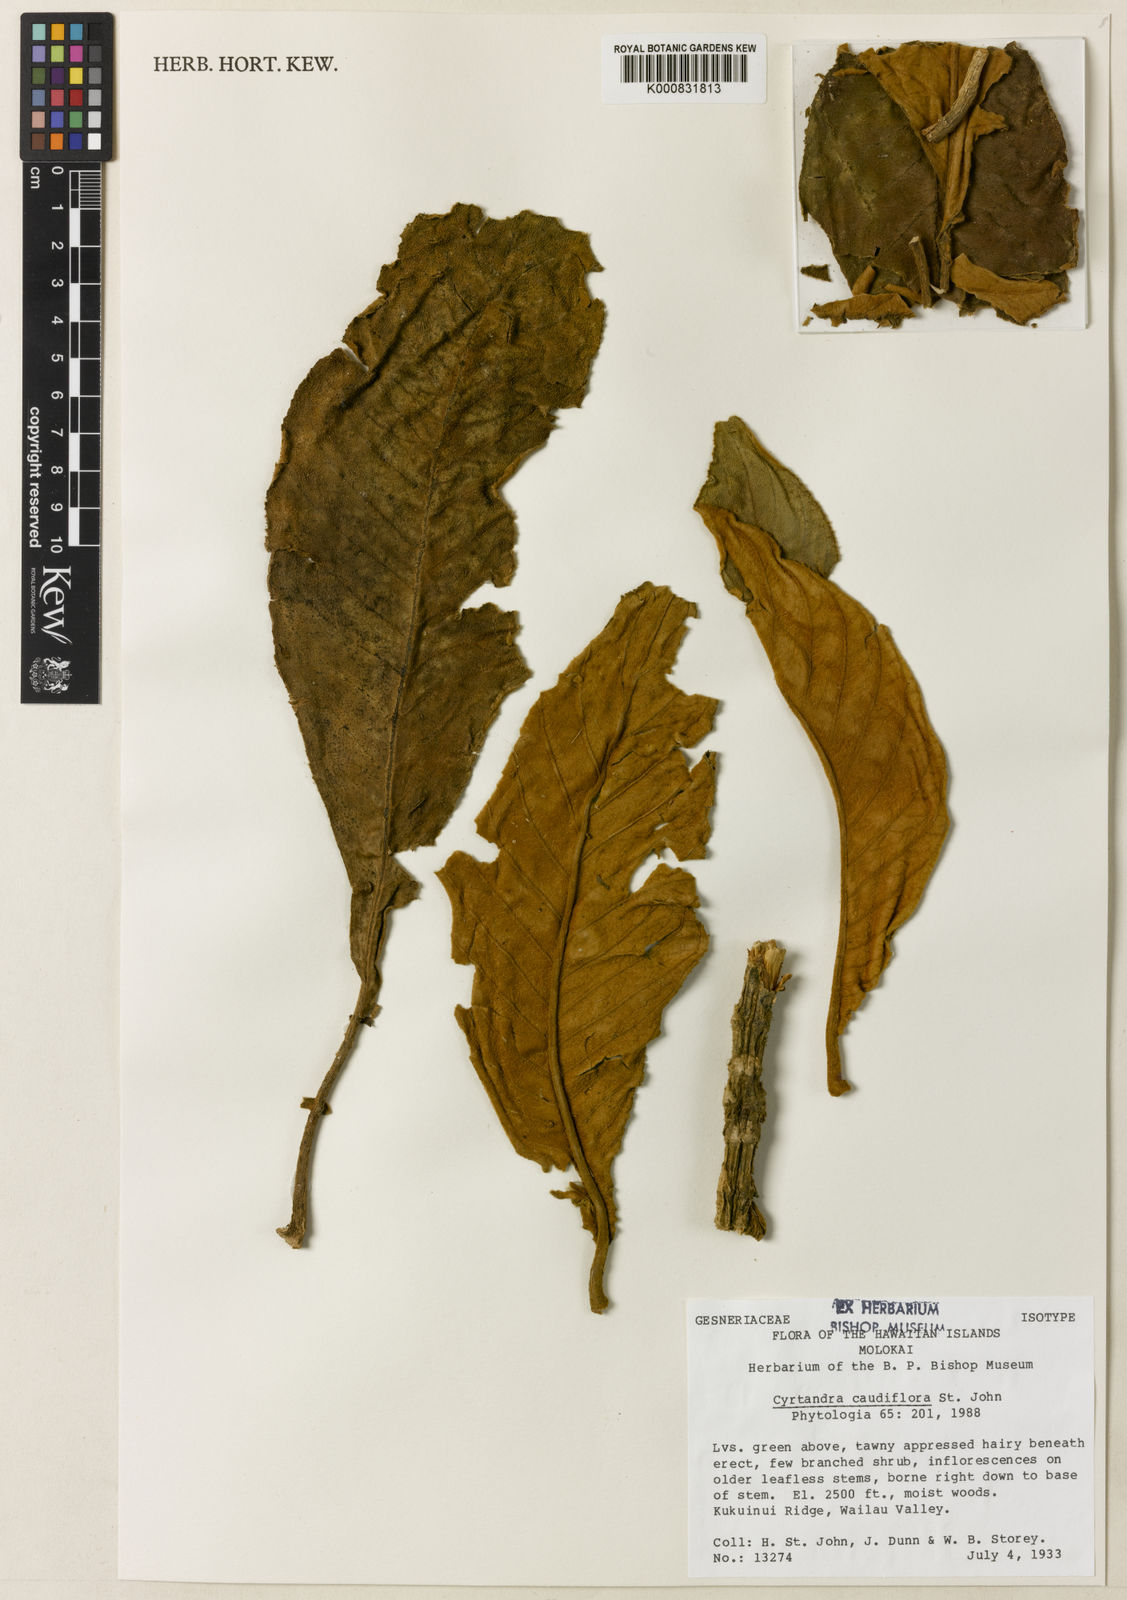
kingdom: Plantae
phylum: Tracheophyta
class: Magnoliopsida
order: Lamiales
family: Gesneriaceae
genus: Cyrtandra
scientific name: Cyrtandra halawensis
